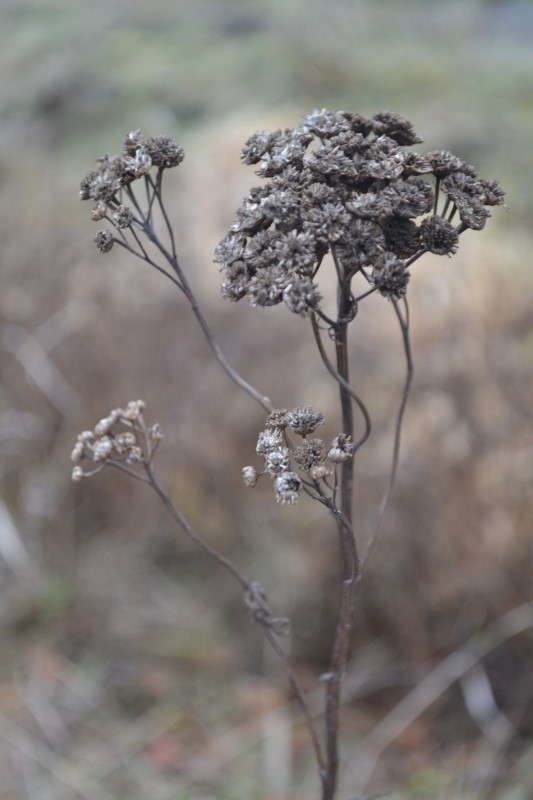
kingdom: Plantae
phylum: Tracheophyta
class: Magnoliopsida
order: Asterales
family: Asteraceae
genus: Tanacetum
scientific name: Tanacetum vulgare
